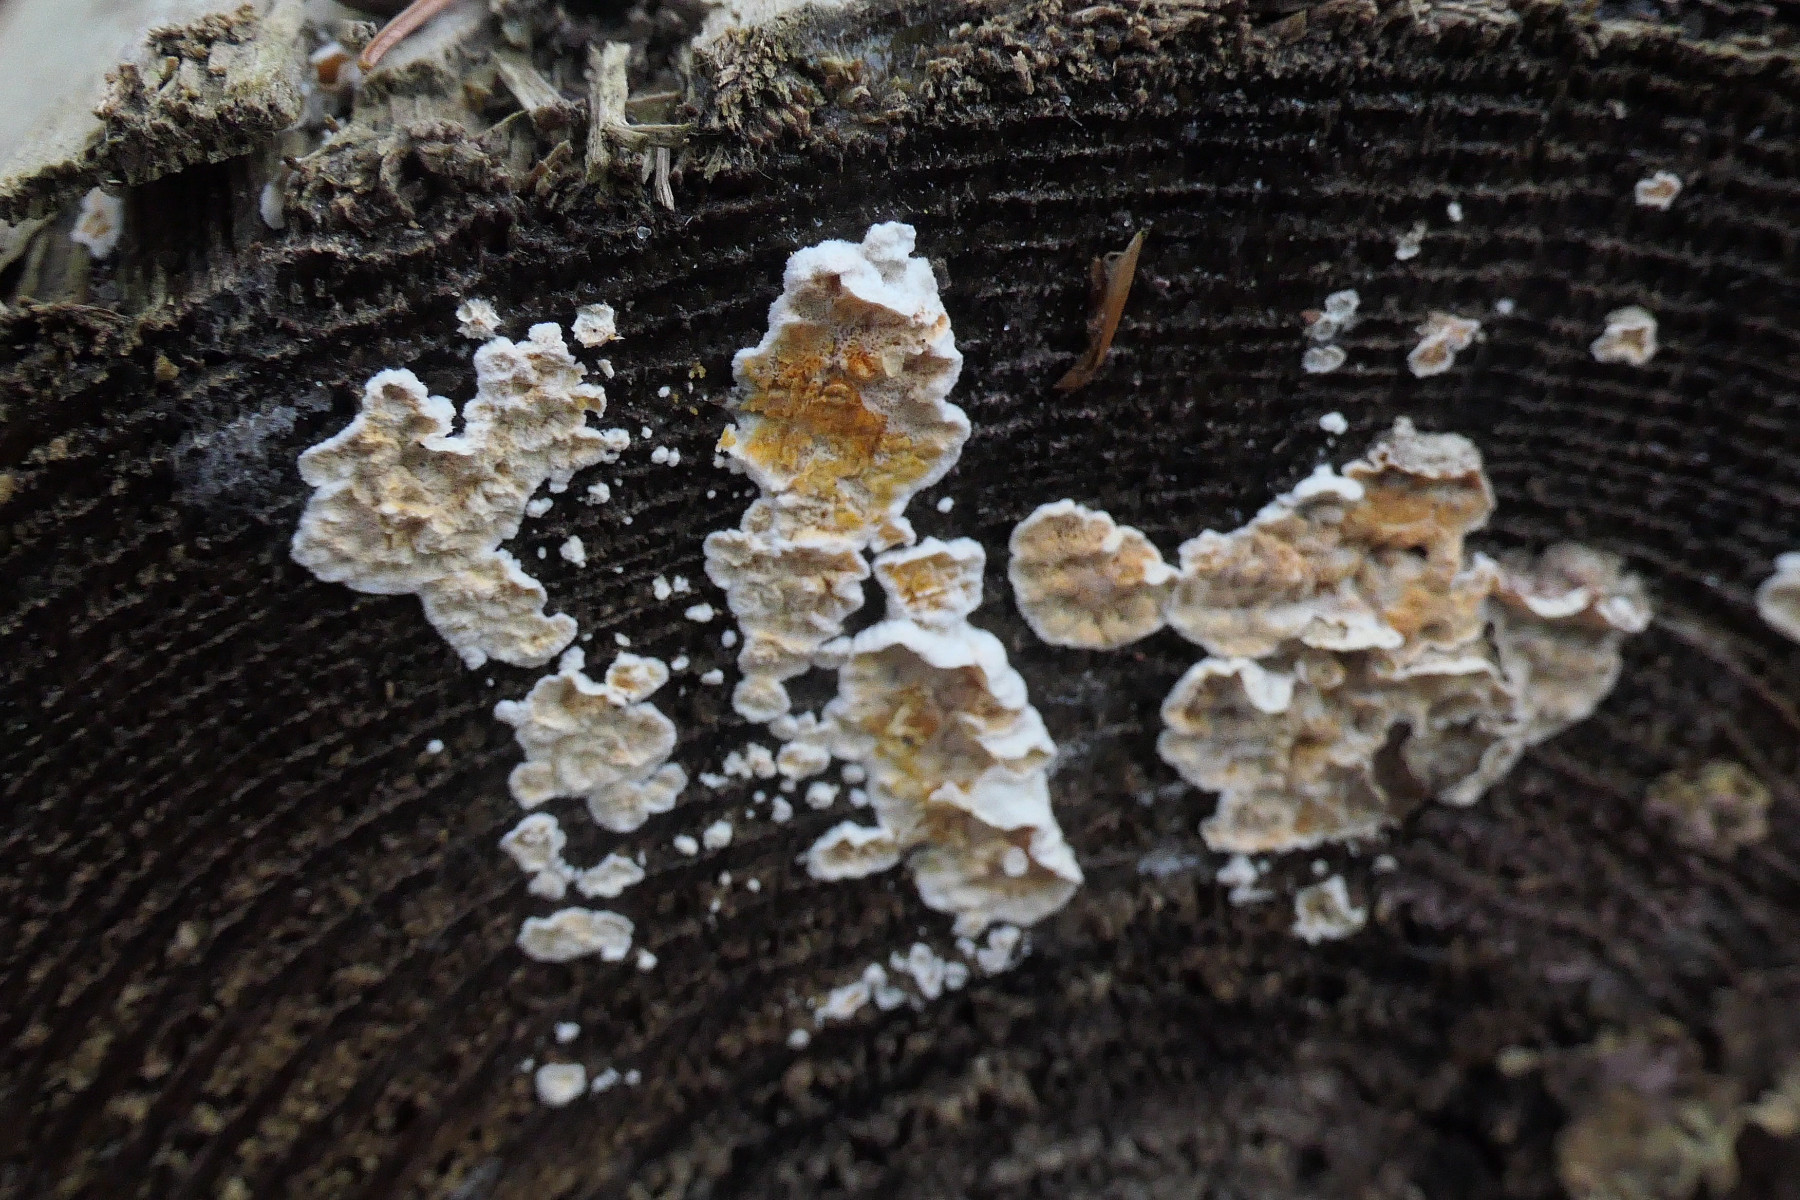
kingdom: Fungi
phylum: Basidiomycota
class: Agaricomycetes
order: Russulales
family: Stereaceae
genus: Stereum
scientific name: Stereum sanguinolentum
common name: blødende lædersvamp
